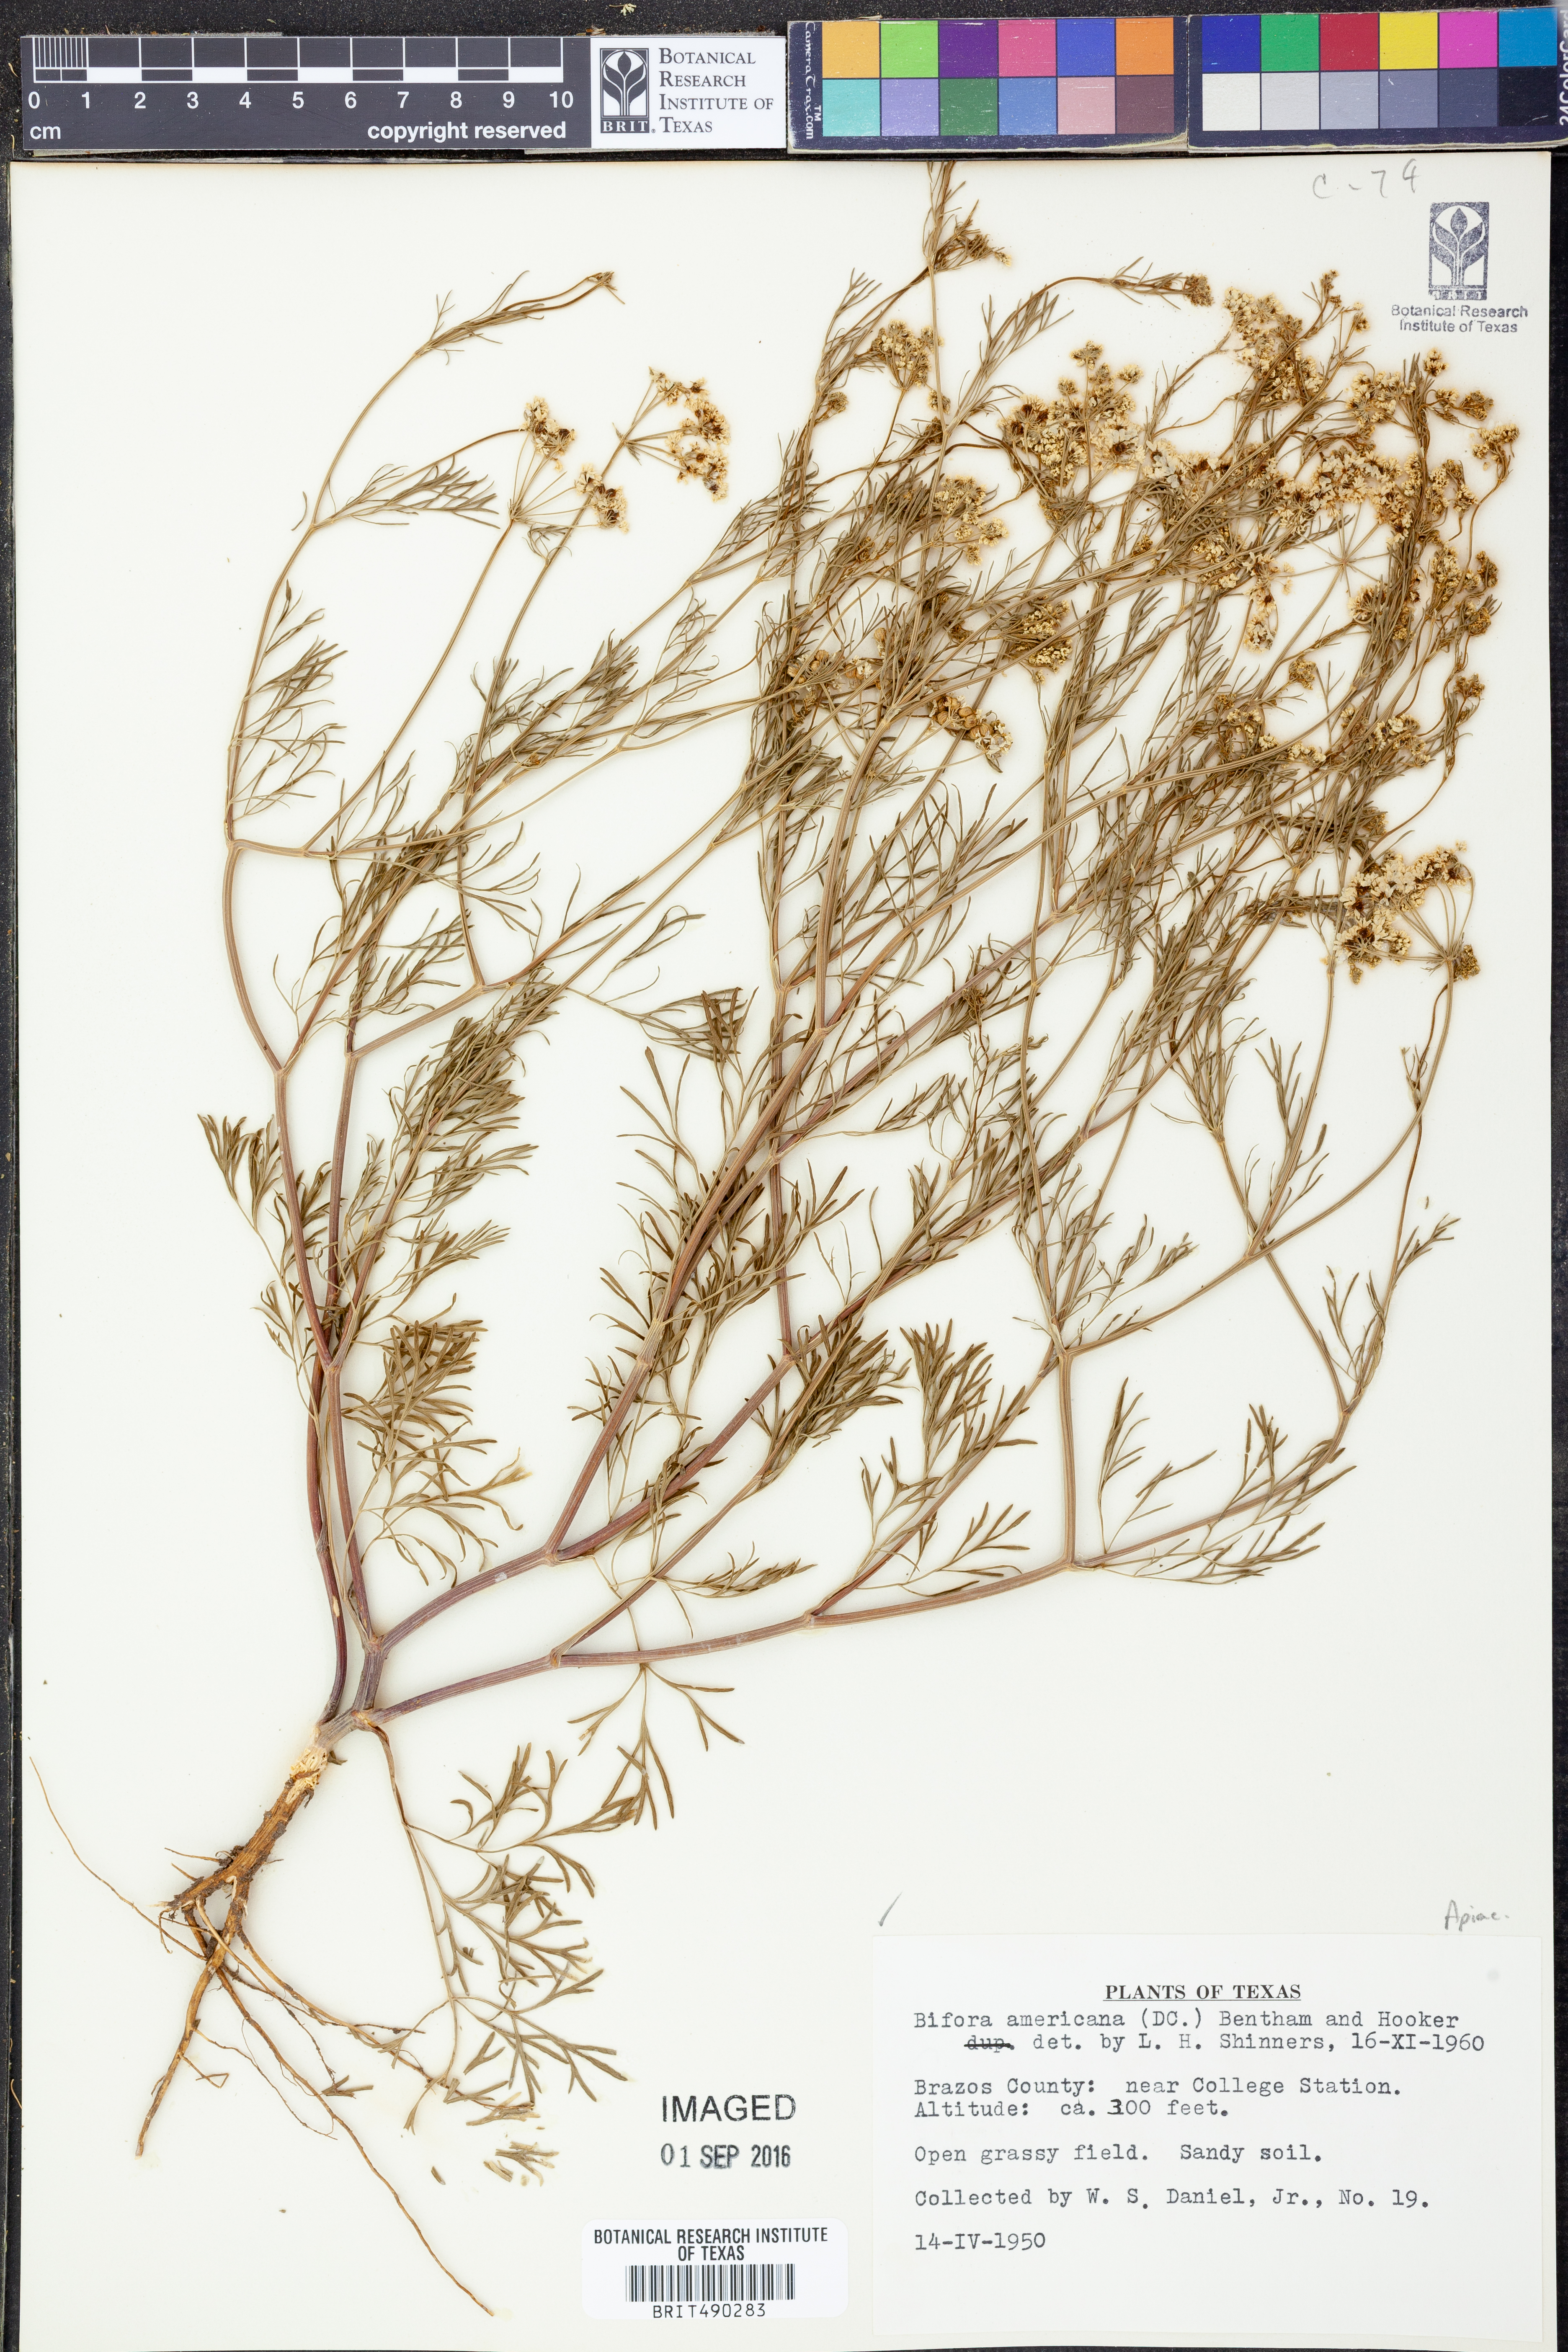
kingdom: Plantae
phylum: Tracheophyta
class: Magnoliopsida
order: Apiales
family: Apiaceae
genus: Atrema
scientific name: Atrema americanum
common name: Prairie-bishop
